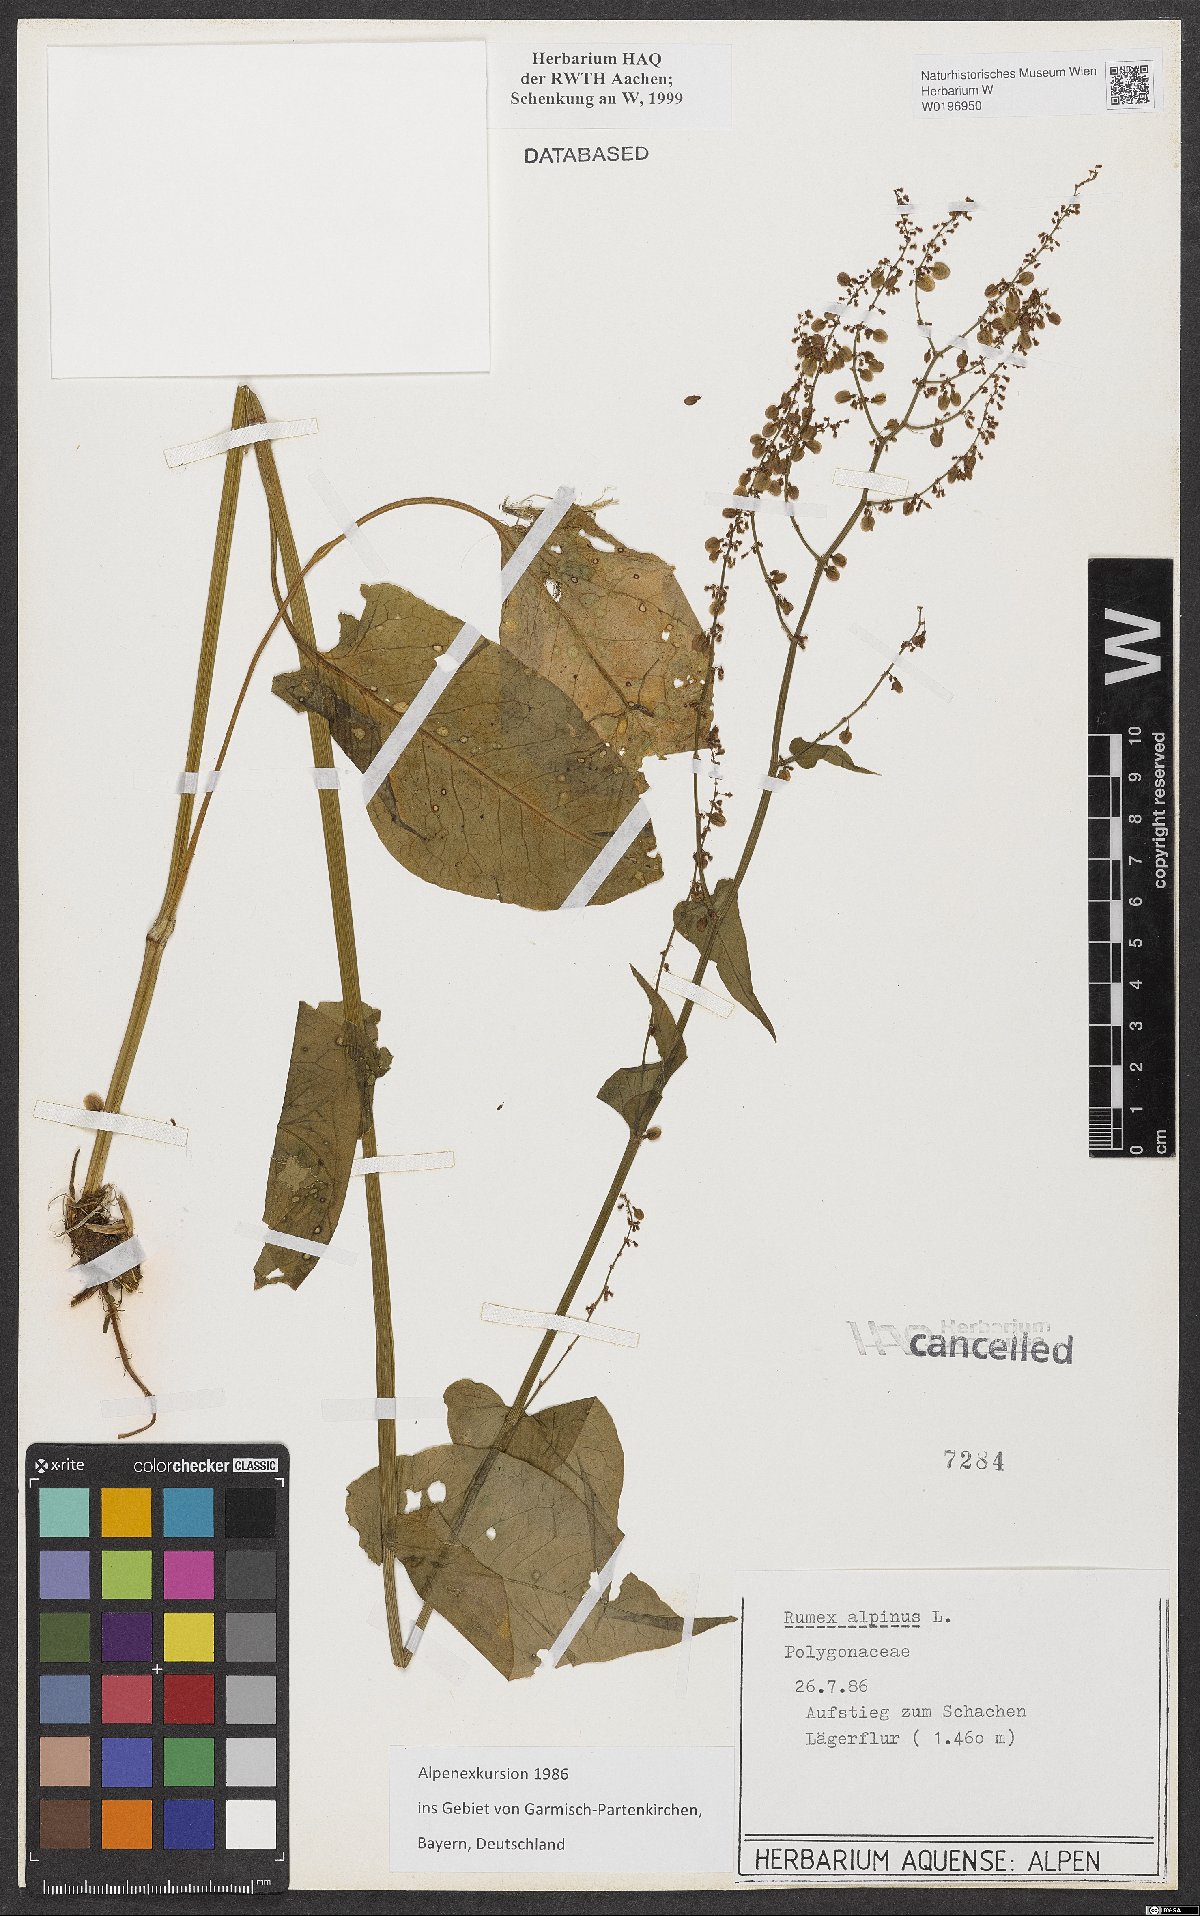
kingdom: Plantae
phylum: Tracheophyta
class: Magnoliopsida
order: Caryophyllales
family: Polygonaceae
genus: Rumex
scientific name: Rumex alpinus
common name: Alpine dock
